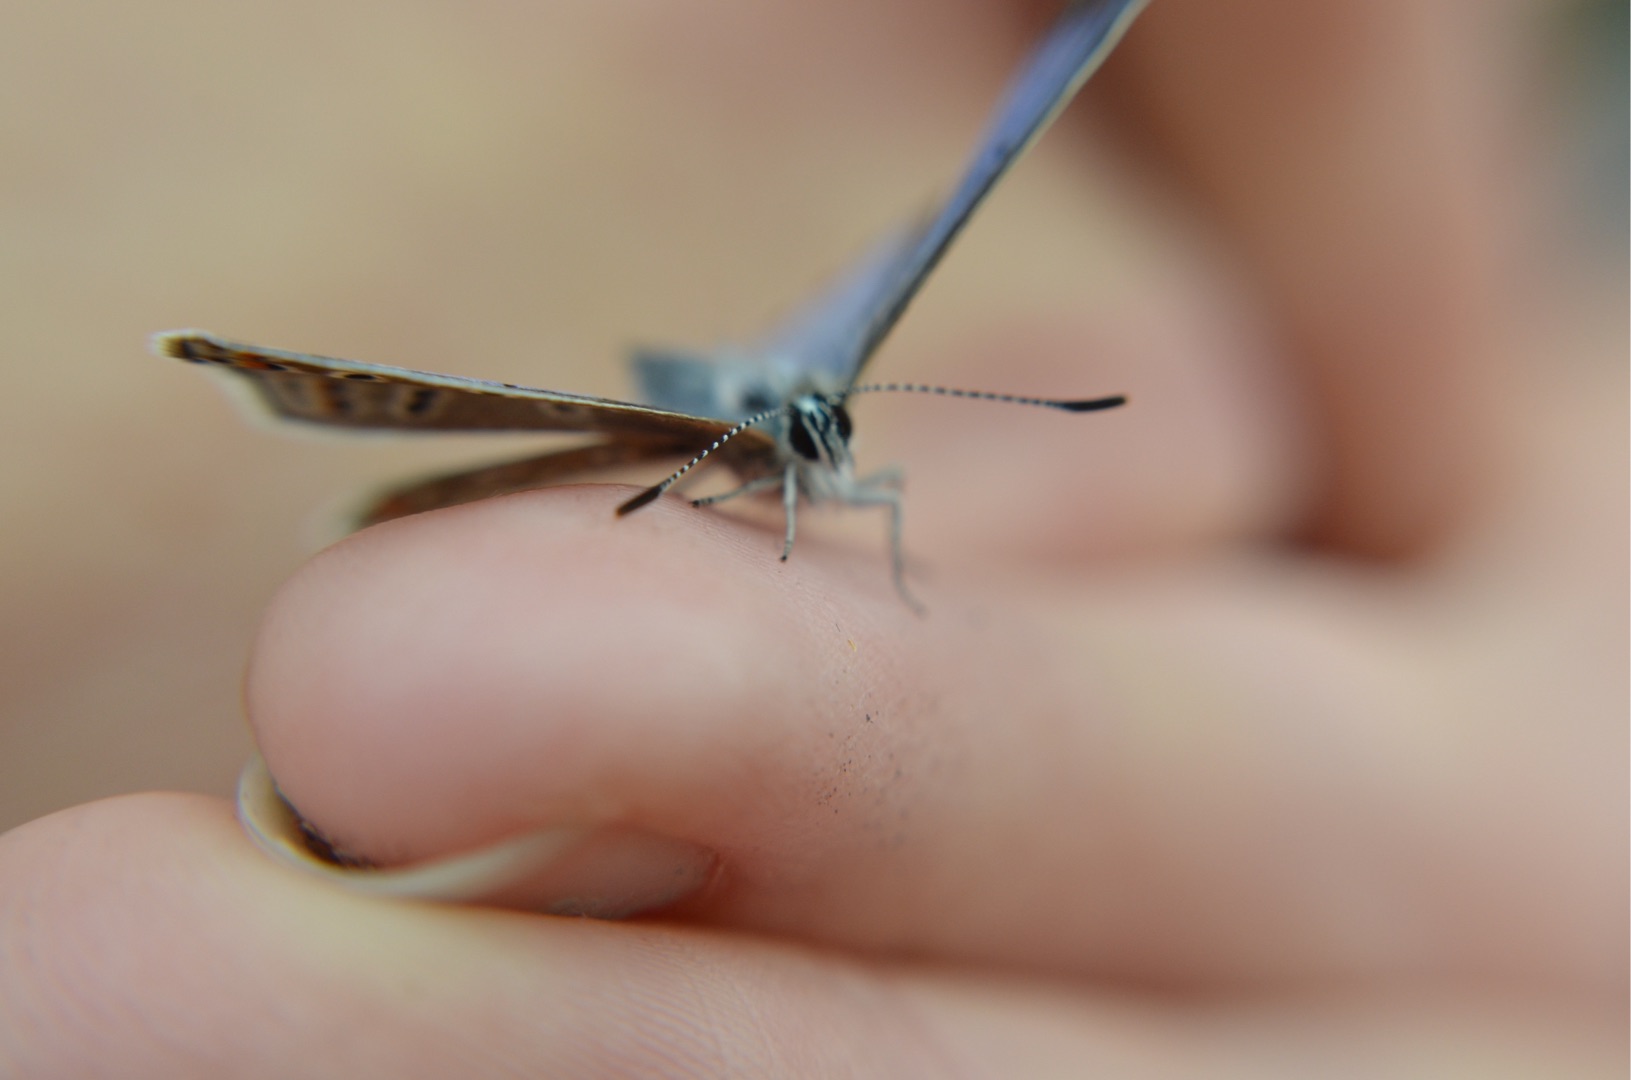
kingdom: Animalia
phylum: Arthropoda
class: Insecta
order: Lepidoptera
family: Lycaenidae
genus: Polyommatus
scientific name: Polyommatus icarus
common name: Almindelig blåfugl
